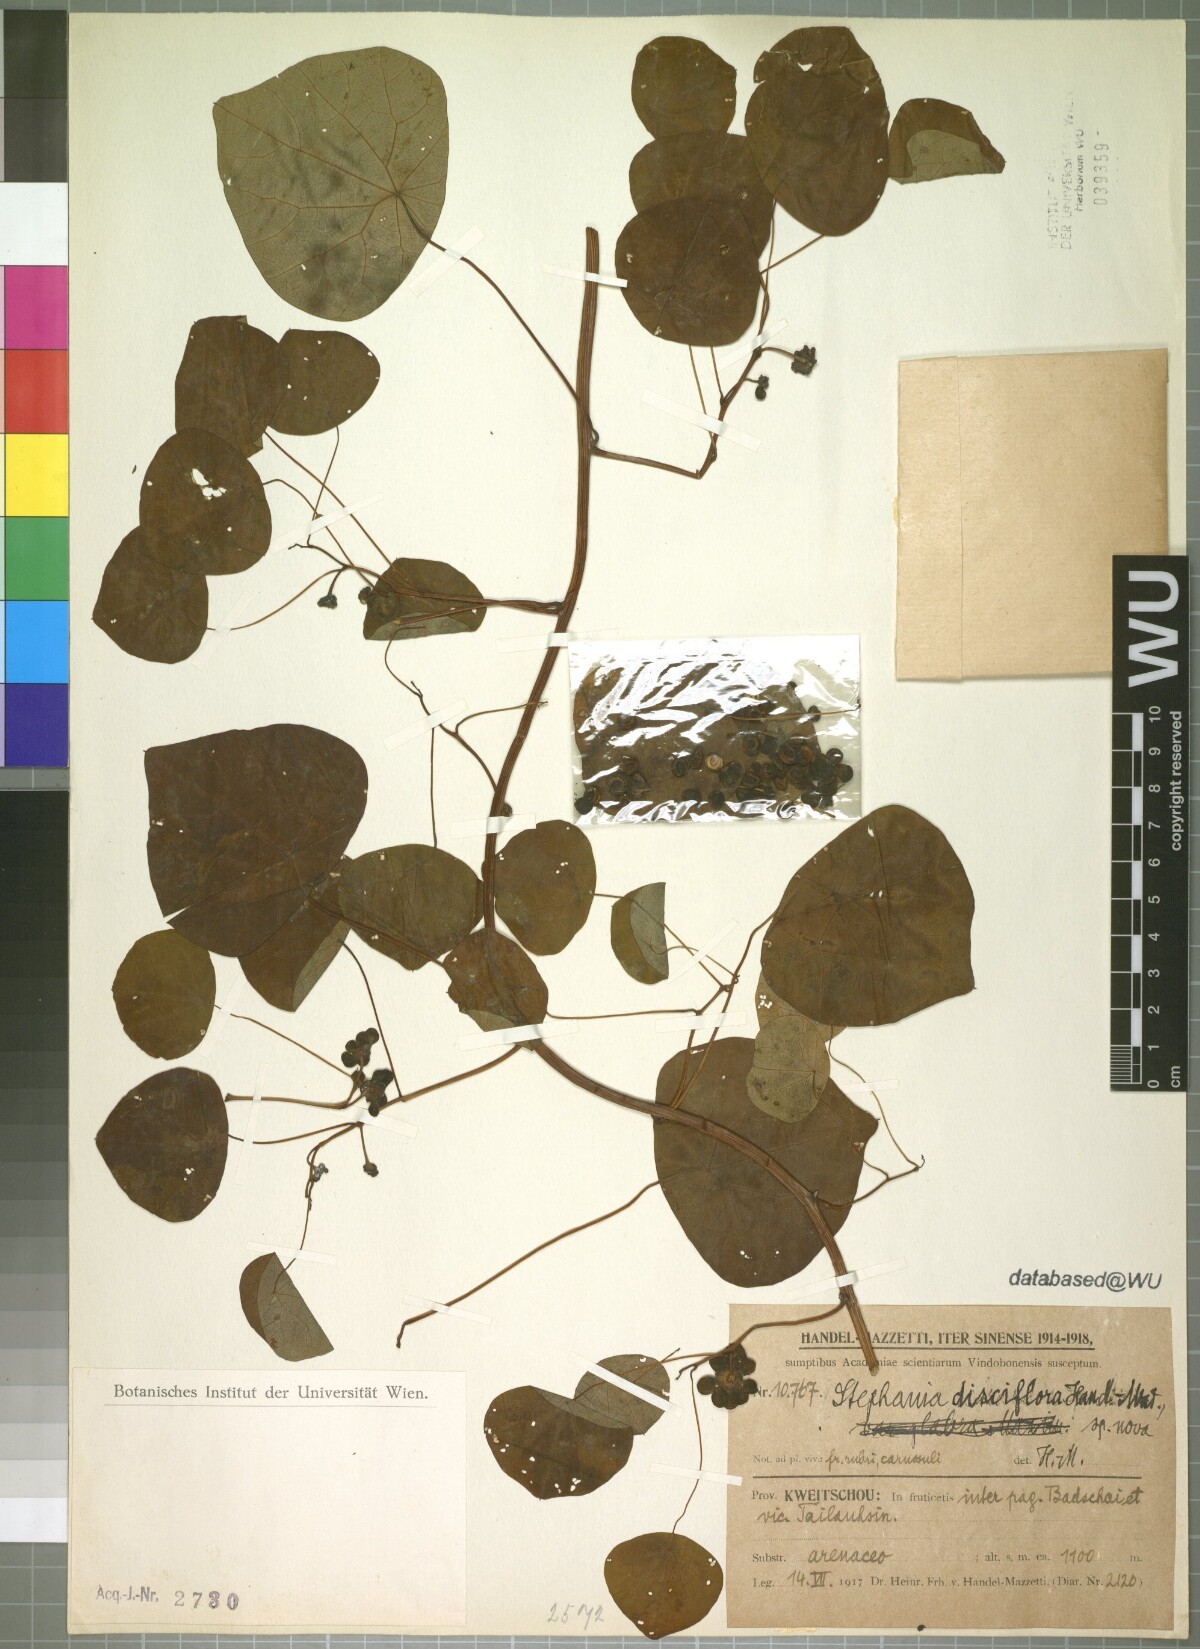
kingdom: Plantae
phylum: Tracheophyta
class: Magnoliopsida
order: Ranunculales
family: Menispermaceae
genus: Stephania
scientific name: Stephania cephalantha
